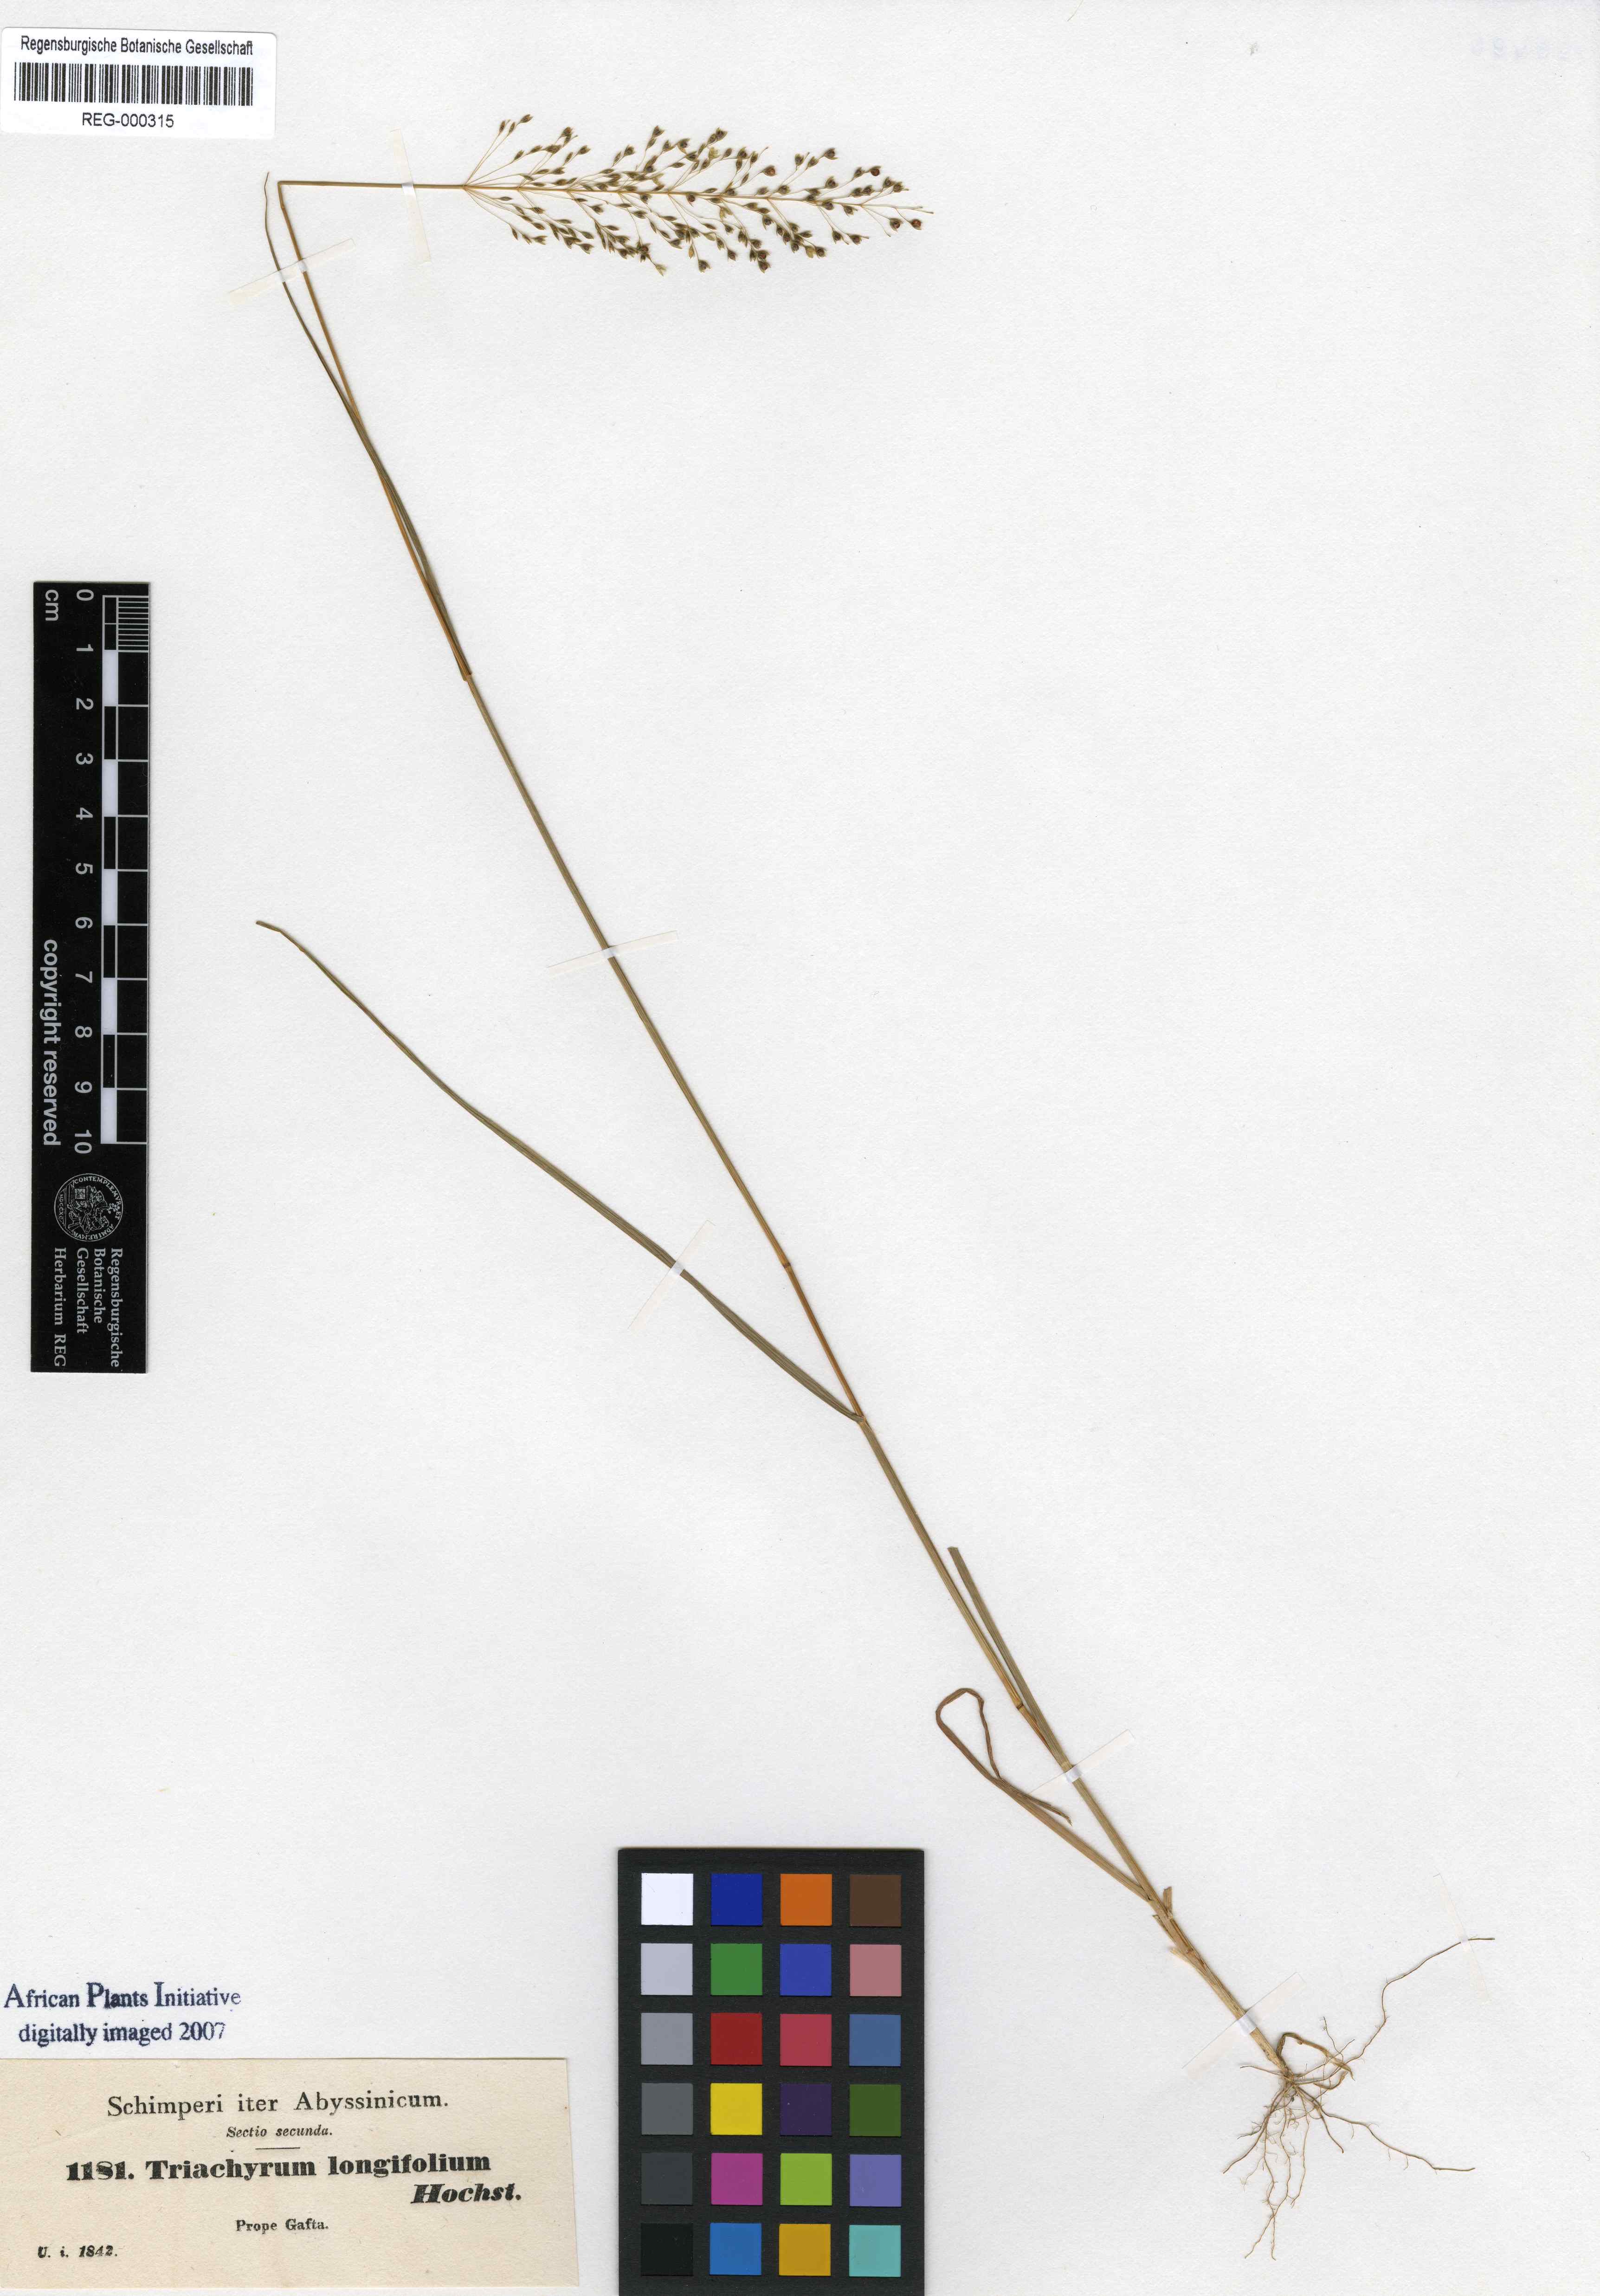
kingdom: Plantae
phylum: Tracheophyta
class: Liliopsida
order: Poales
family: Poaceae
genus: Sporobolus
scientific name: Sporobolus panicoides
